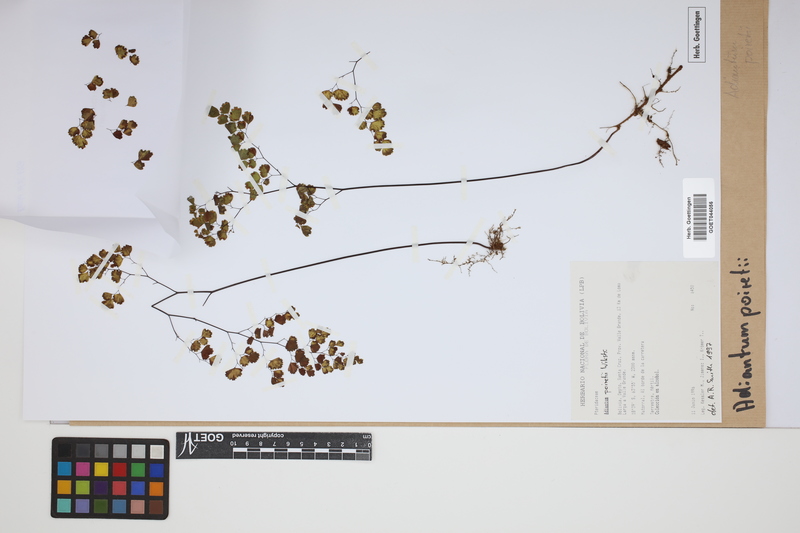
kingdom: Plantae
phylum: Tracheophyta
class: Polypodiopsida
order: Polypodiales
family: Pteridaceae
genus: Adiantum
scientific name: Adiantum poiretii
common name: Mexican maidenhair
